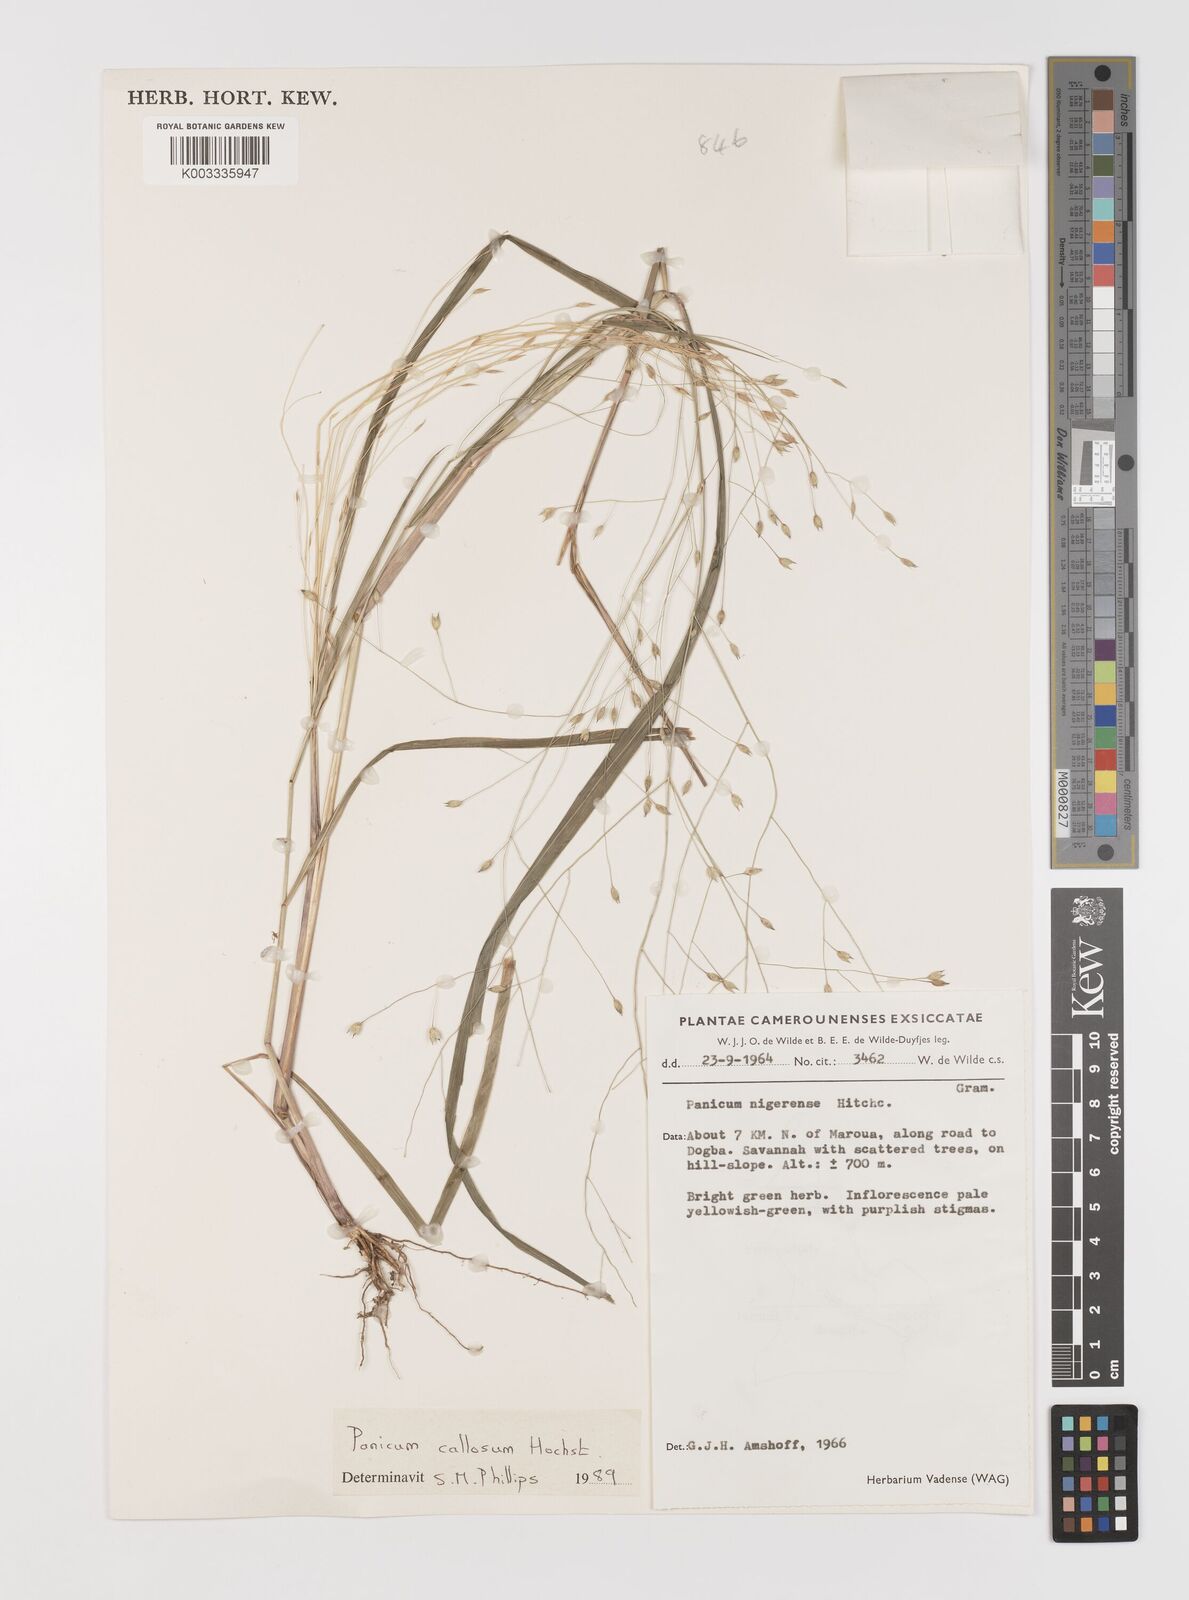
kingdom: Plantae
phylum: Tracheophyta
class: Liliopsida
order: Poales
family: Poaceae
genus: Panicum
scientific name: Panicum callosum
